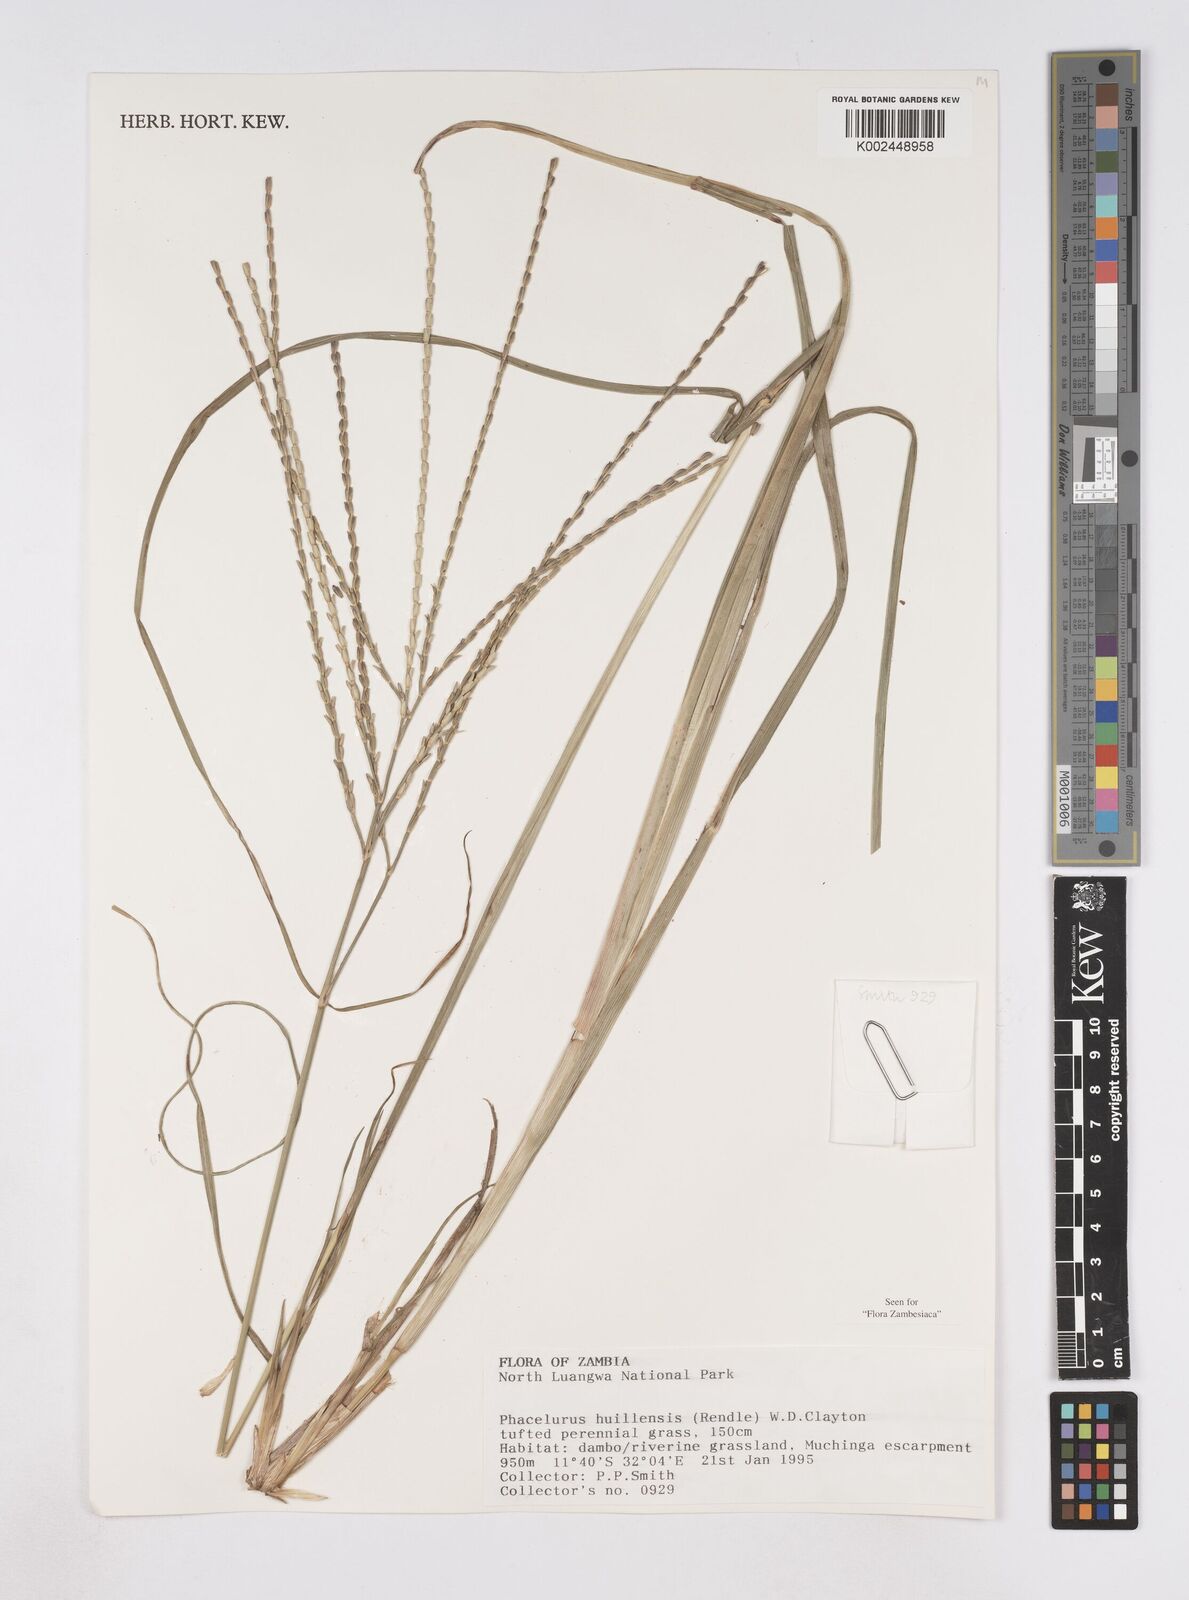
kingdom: Plantae
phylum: Tracheophyta
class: Liliopsida
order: Poales
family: Poaceae
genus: Thyrsia
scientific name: Thyrsia huillensis
